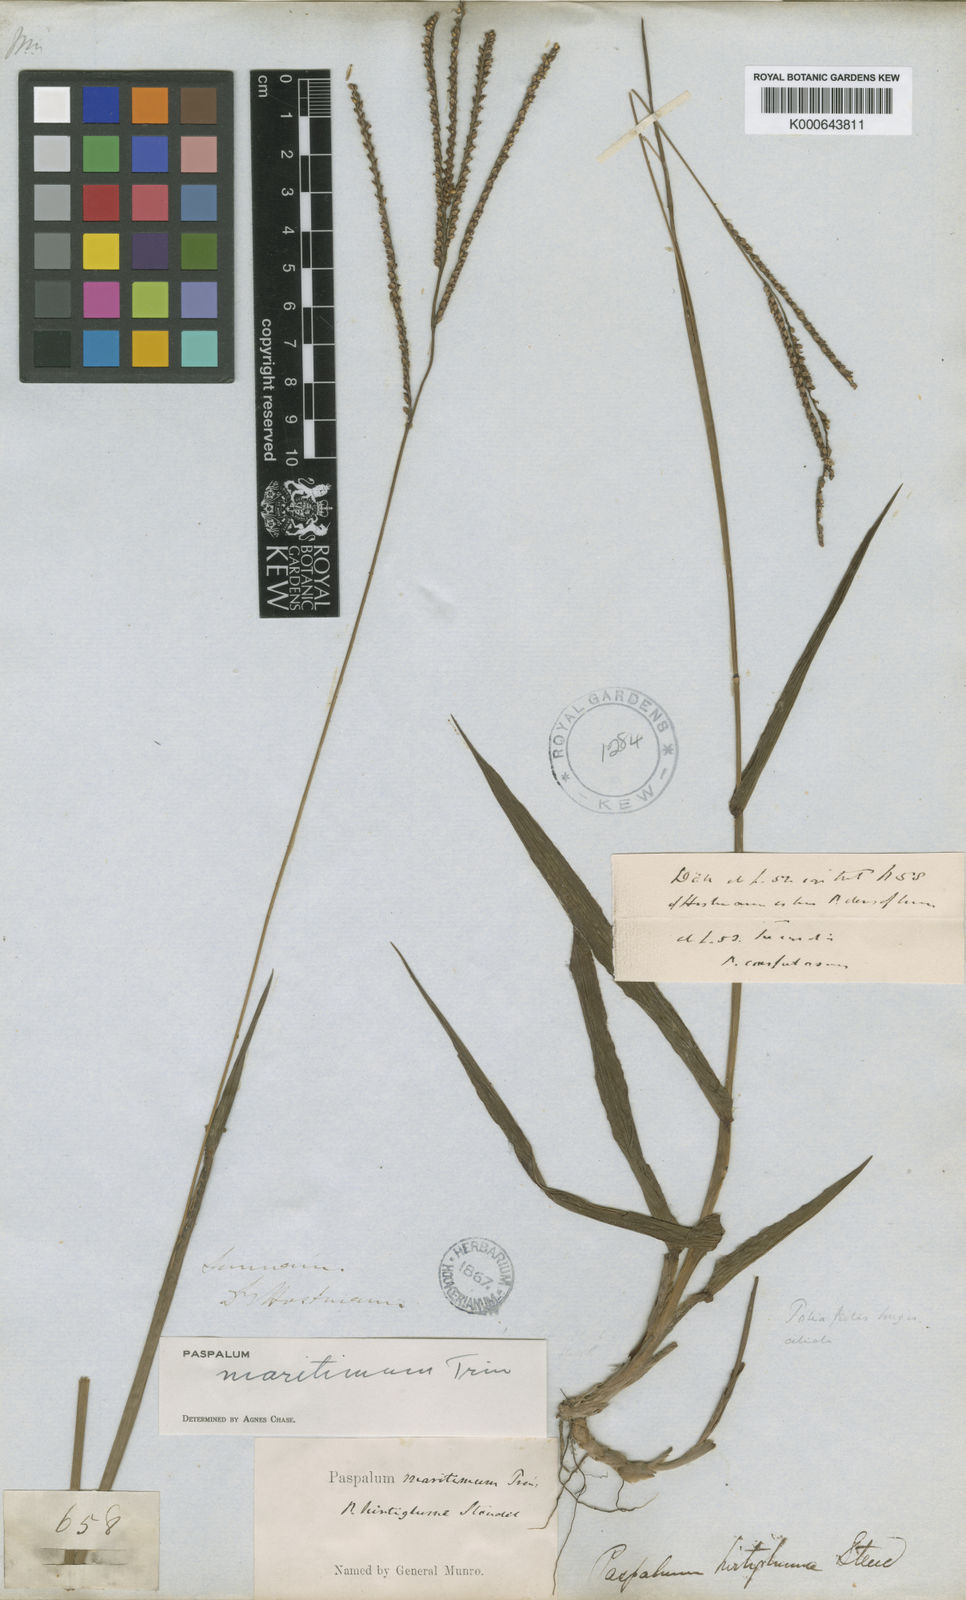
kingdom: Plantae
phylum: Tracheophyta
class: Liliopsida
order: Poales
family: Poaceae
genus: Paspalum
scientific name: Paspalum maritimum
